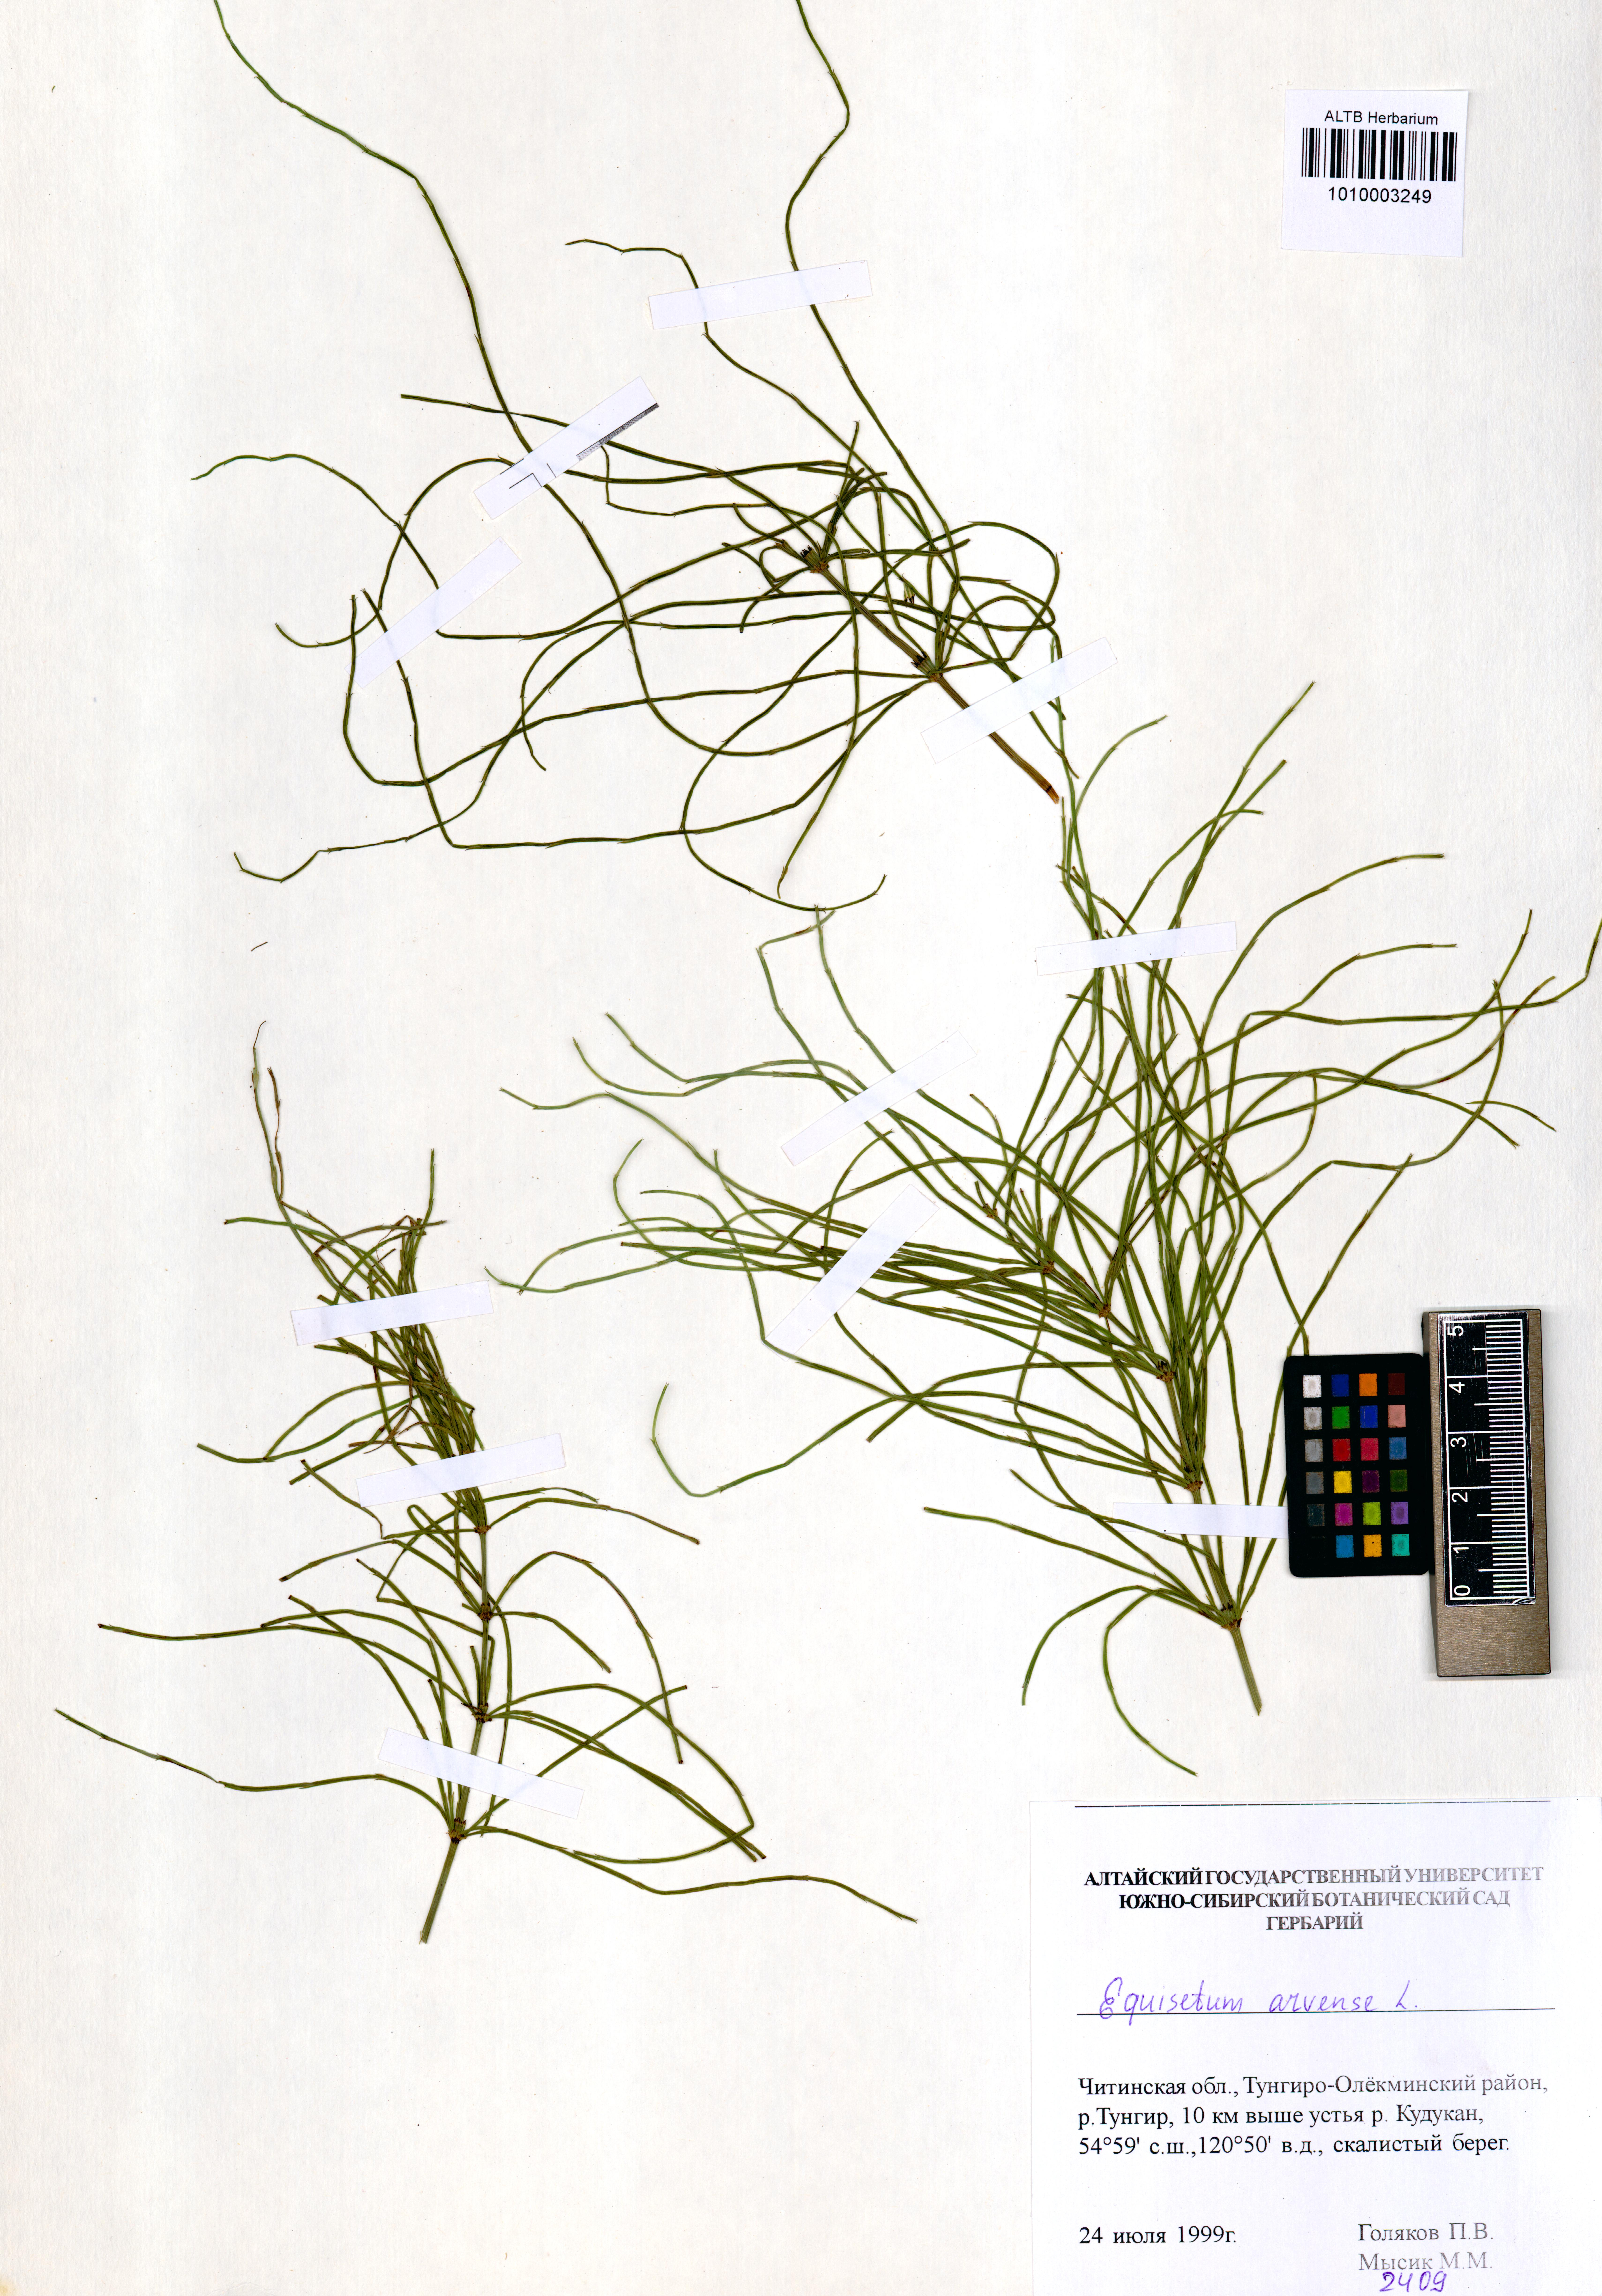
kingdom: Plantae
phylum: Tracheophyta
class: Polypodiopsida
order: Equisetales
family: Equisetaceae
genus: Equisetum
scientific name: Equisetum arvense
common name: Field horsetail
